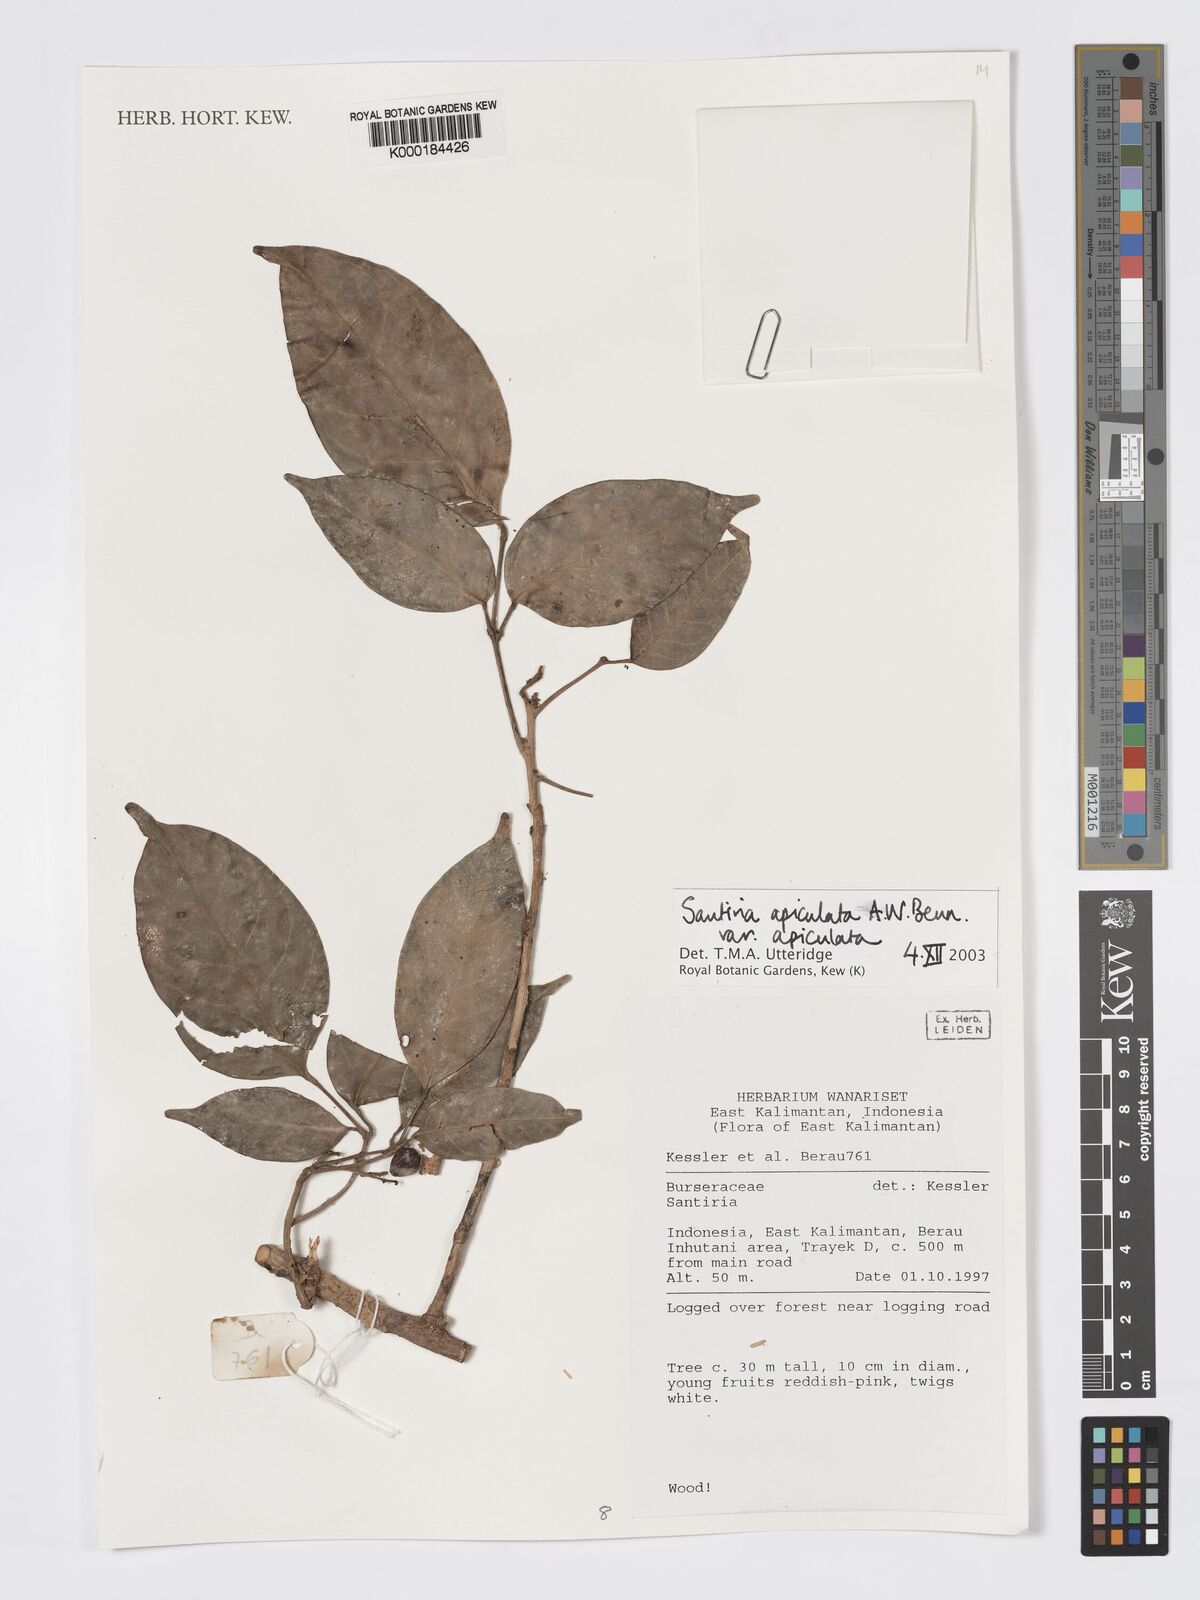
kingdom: Plantae
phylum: Tracheophyta
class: Magnoliopsida
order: Sapindales
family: Burseraceae
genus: Santiria
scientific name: Santiria apiculata
